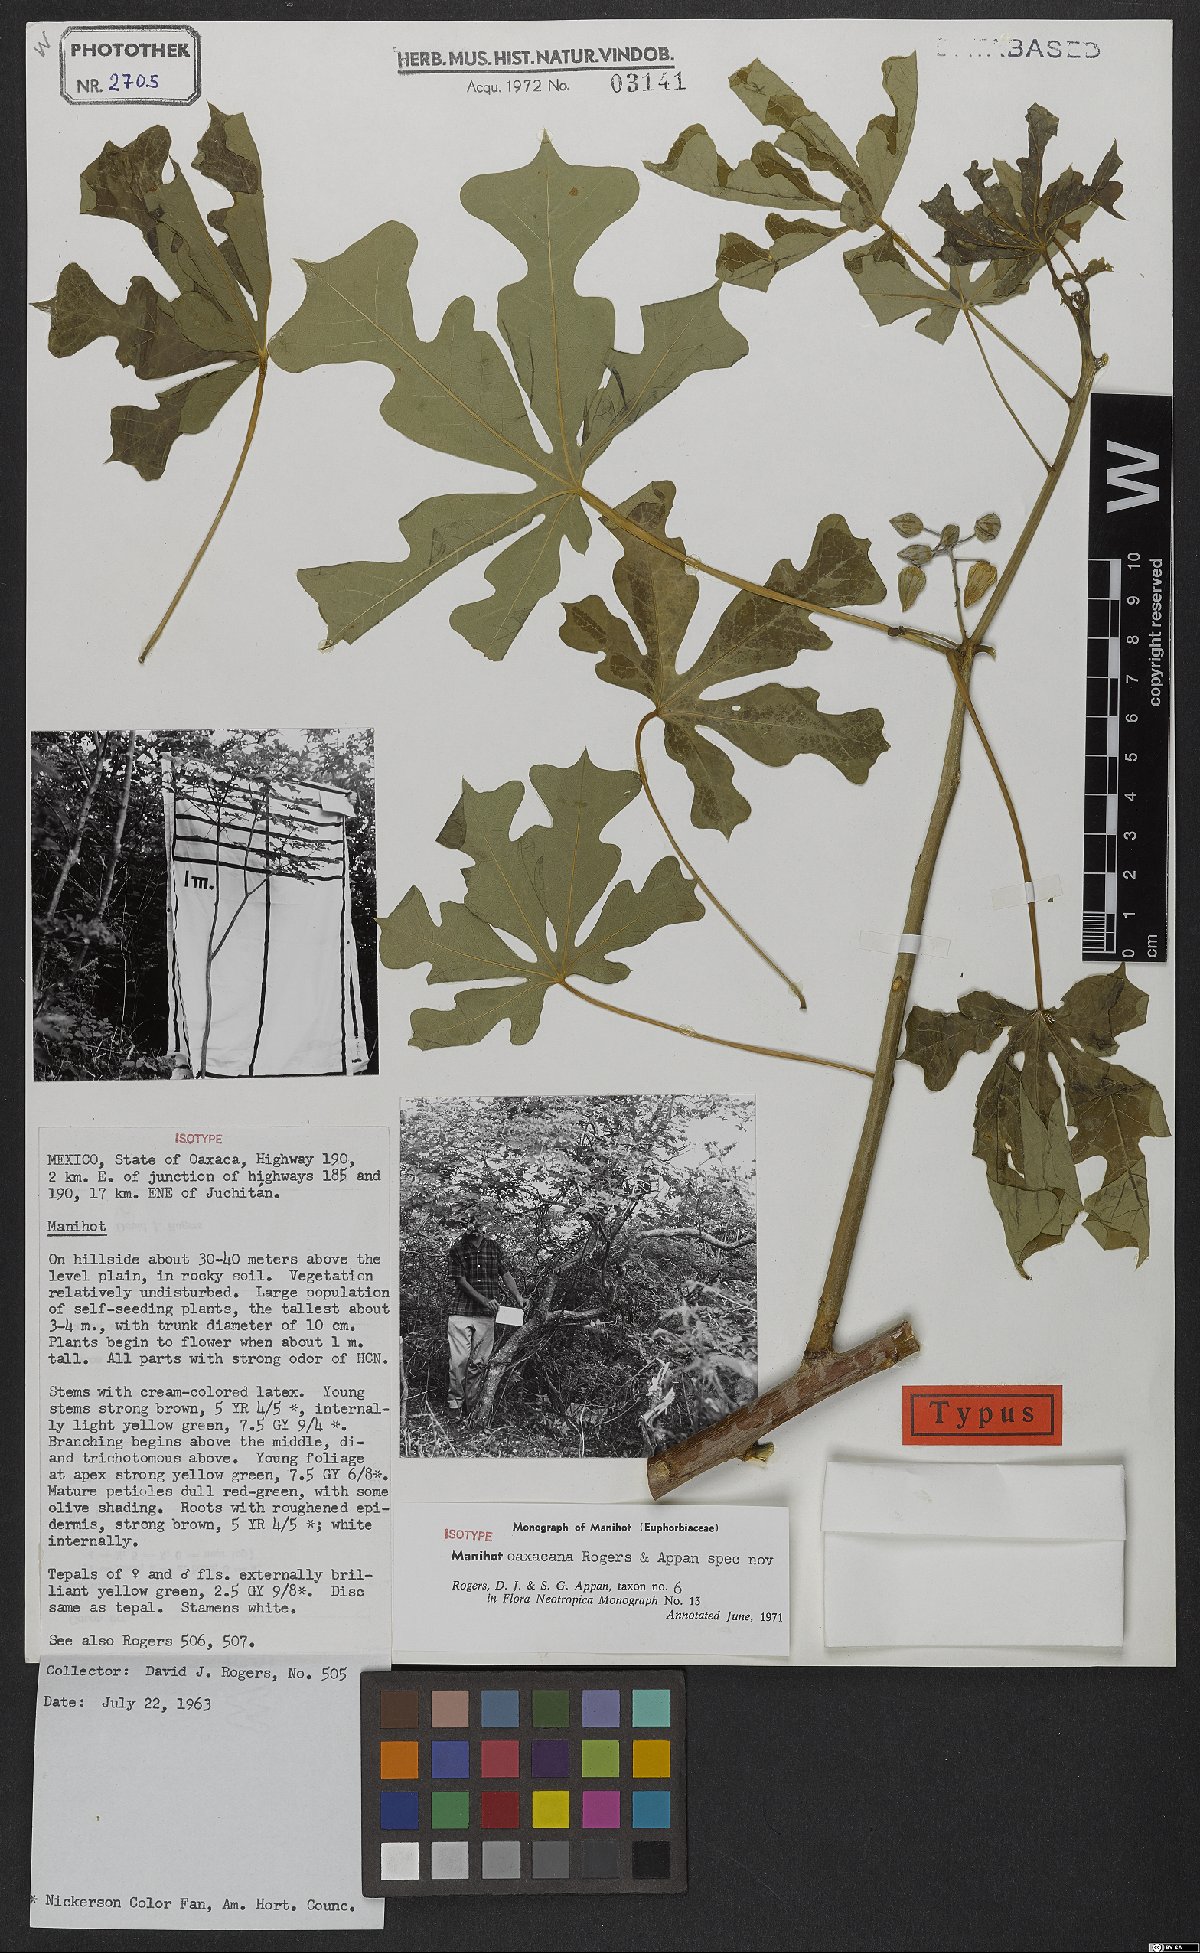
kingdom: Plantae
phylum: Tracheophyta
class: Magnoliopsida
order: Malpighiales
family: Euphorbiaceae
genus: Manihot
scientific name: Manihot oaxacana
